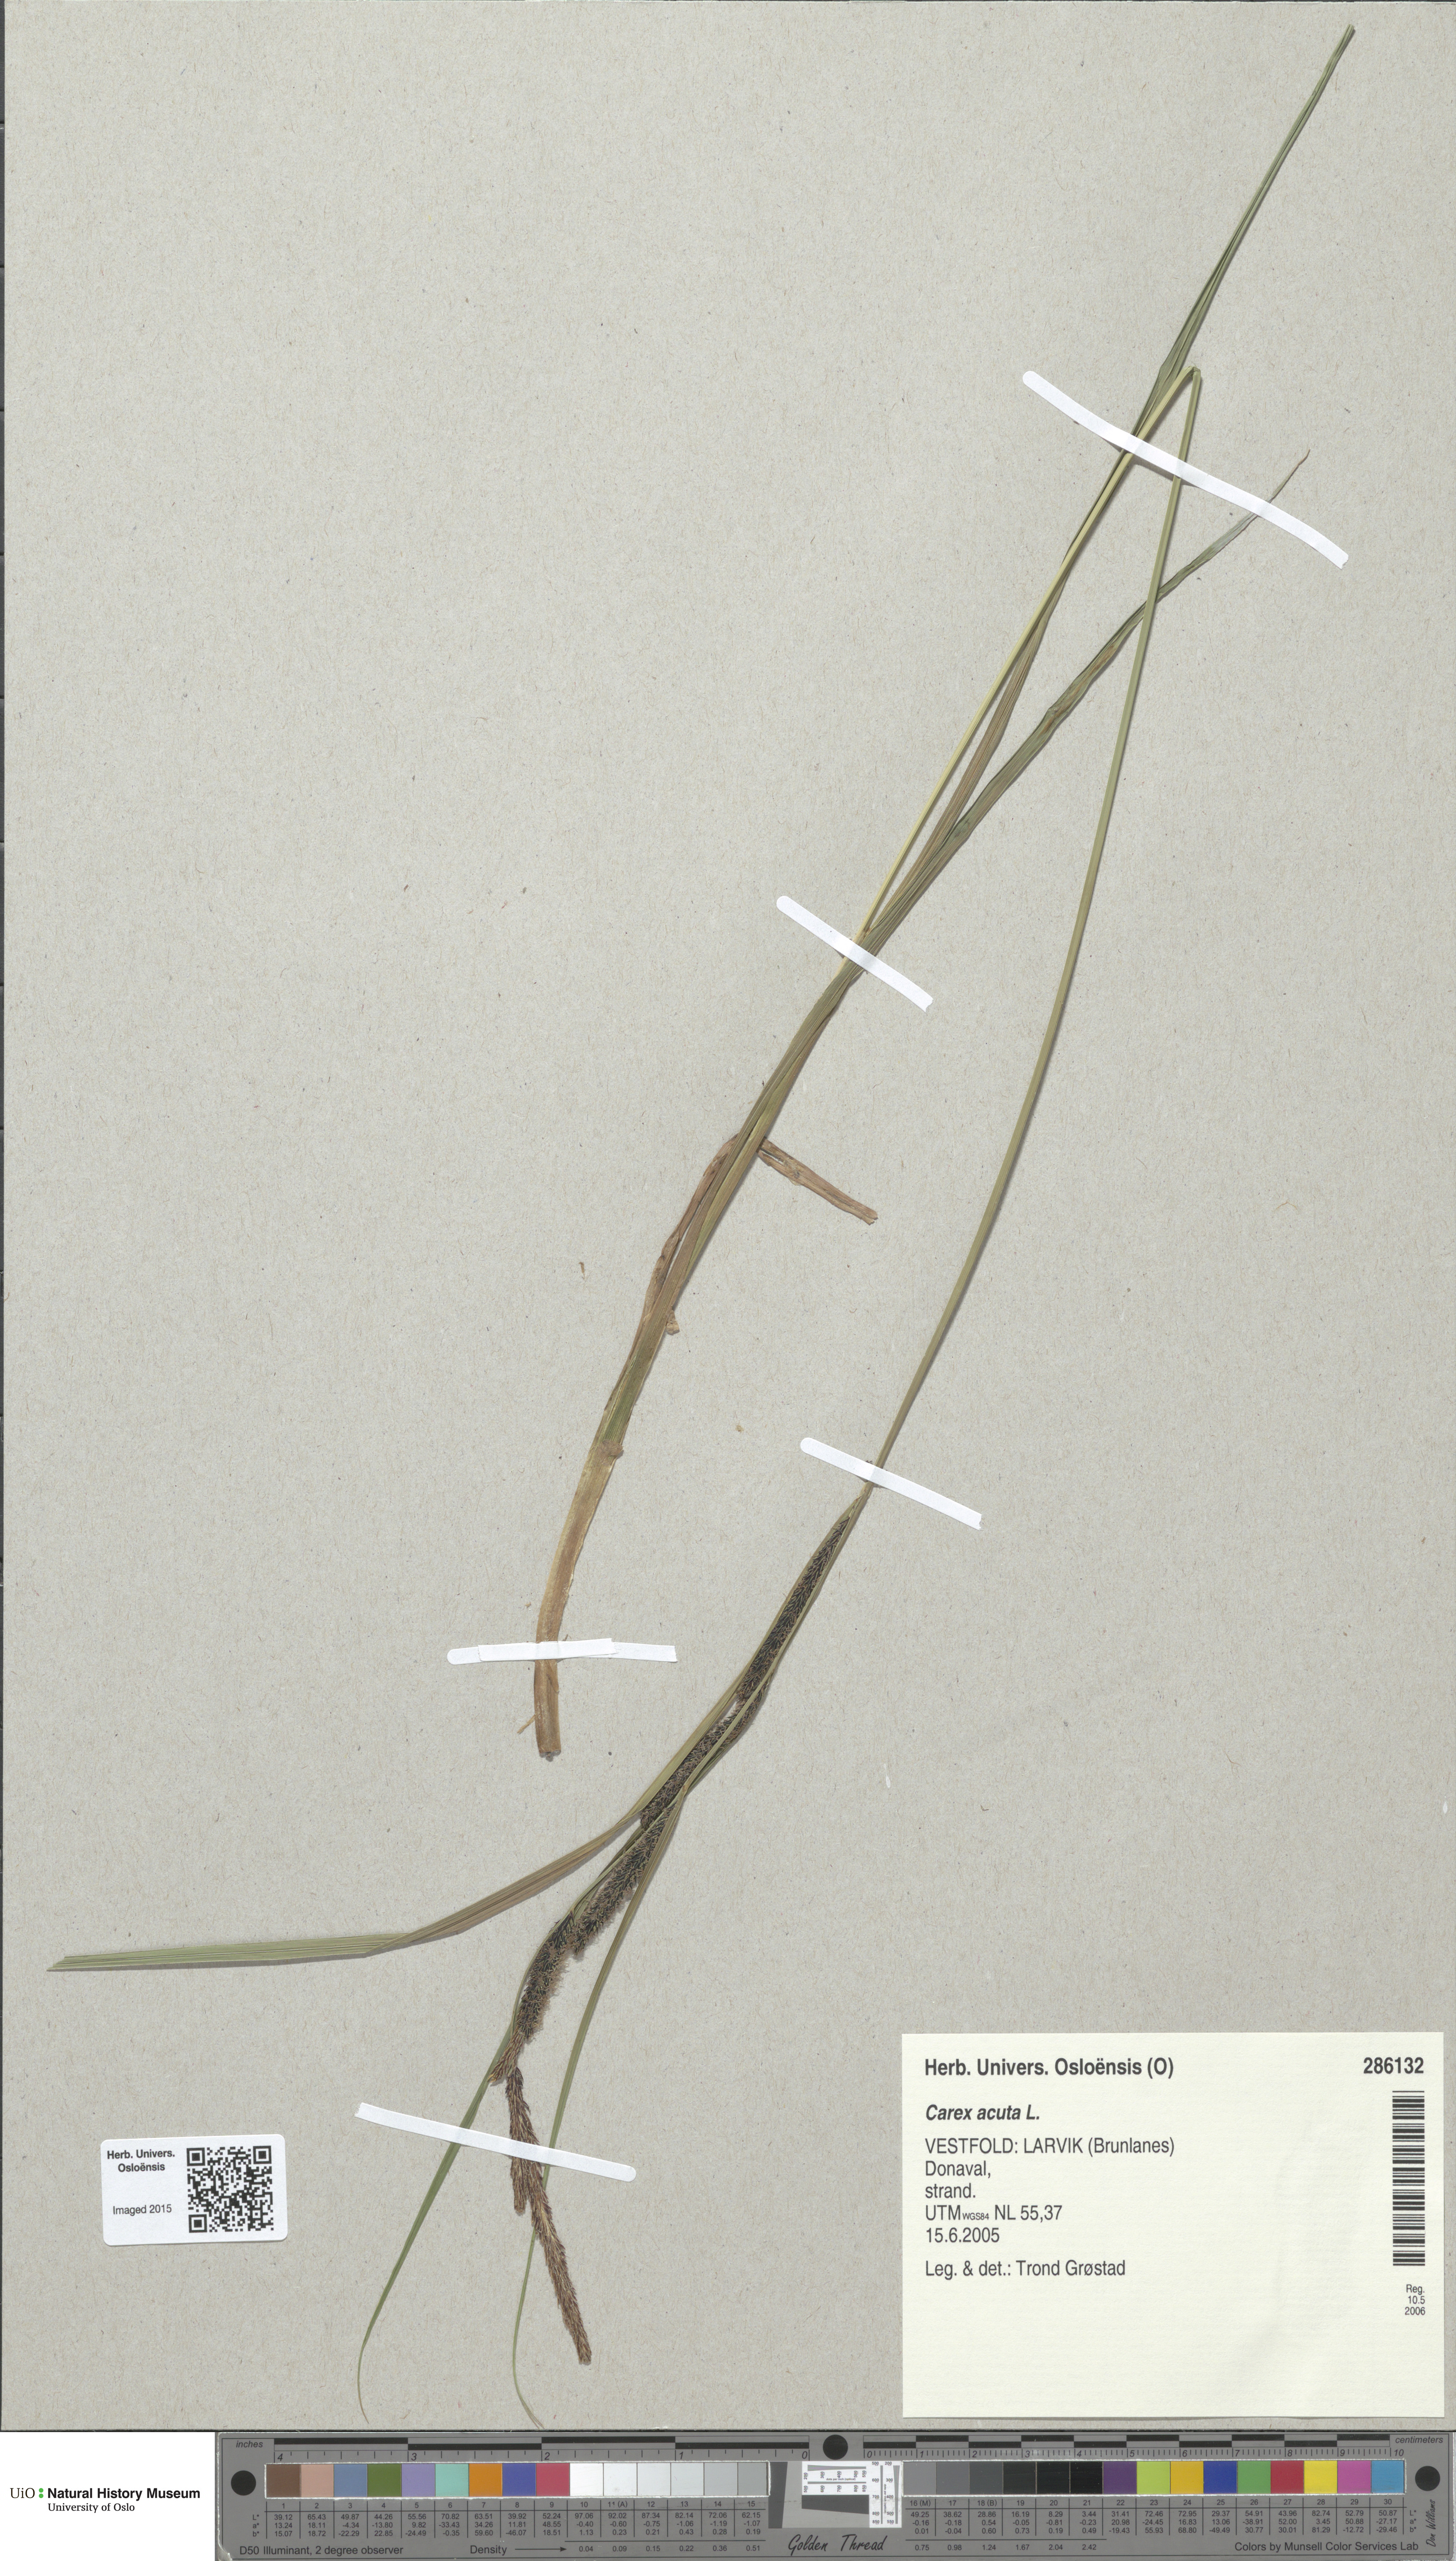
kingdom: Plantae
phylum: Tracheophyta
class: Liliopsida
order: Poales
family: Cyperaceae
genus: Carex
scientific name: Carex acuta
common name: Slender tufted-sedge
